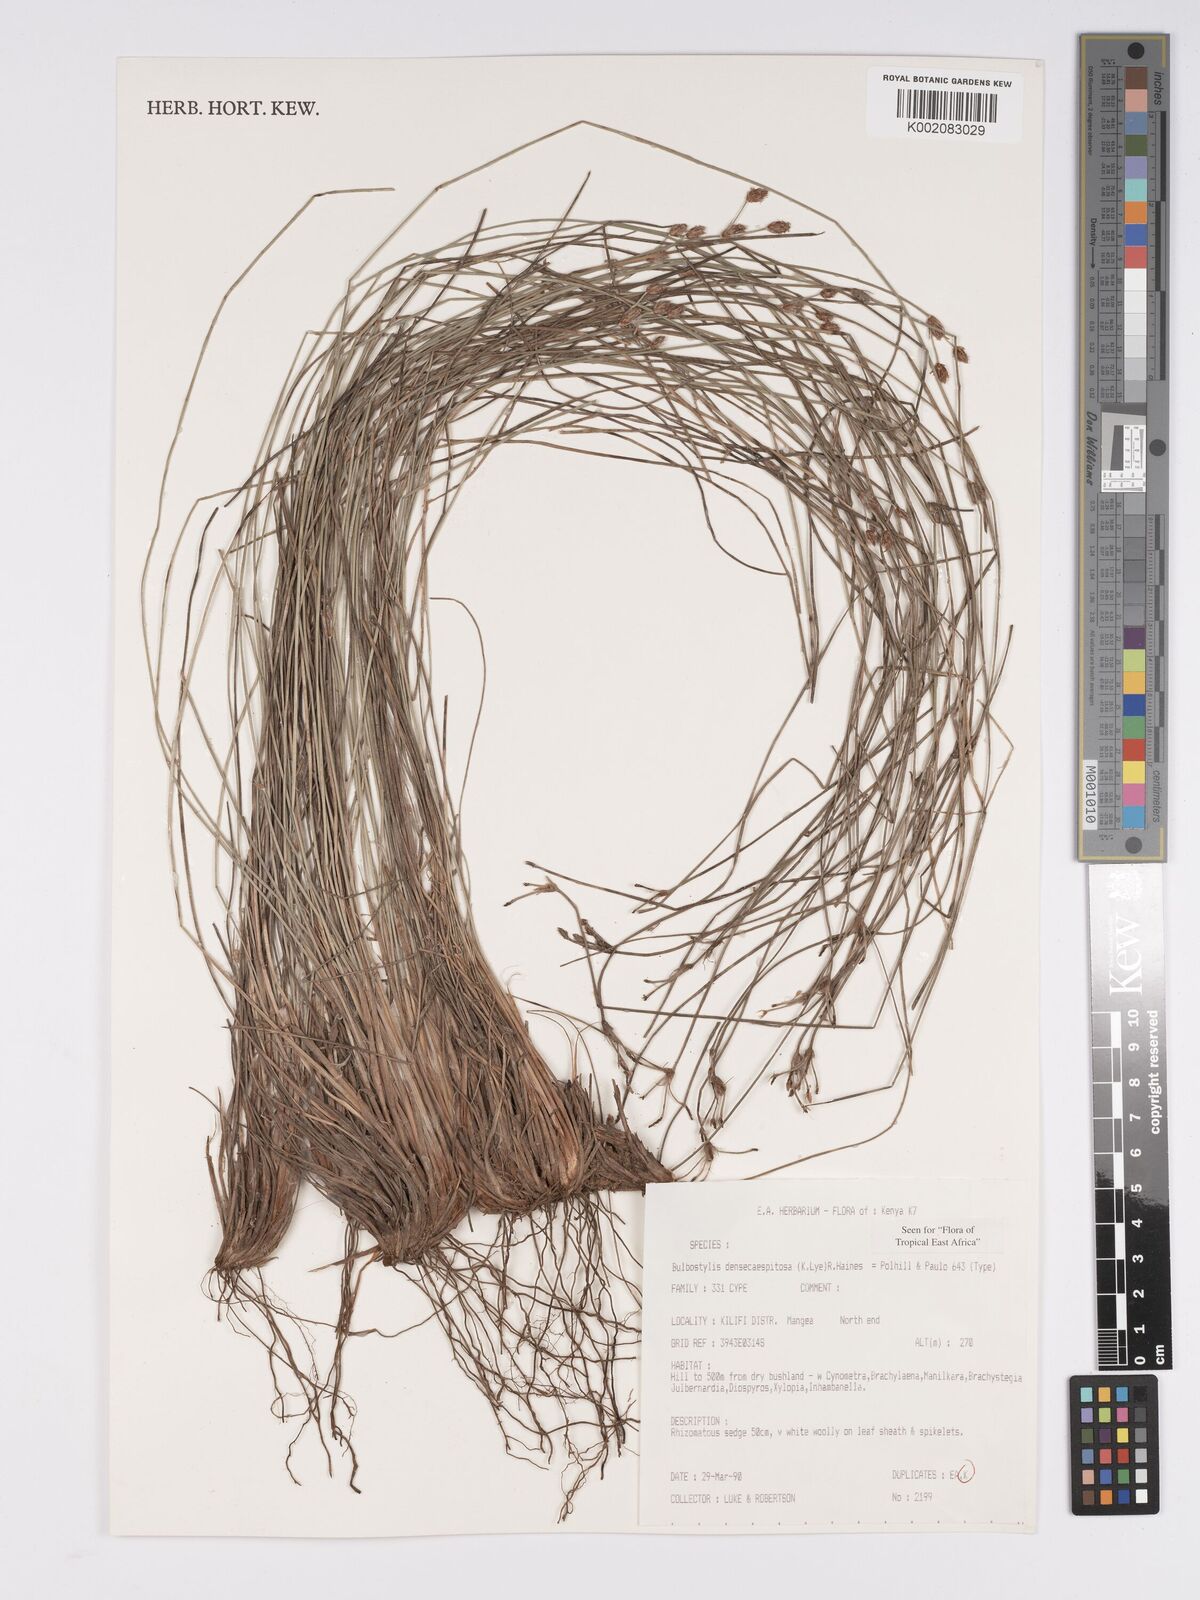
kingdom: Plantae
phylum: Tracheophyta
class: Liliopsida
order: Poales
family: Cyperaceae
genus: Bulbostylis
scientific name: Bulbostylis densicaespitosa
